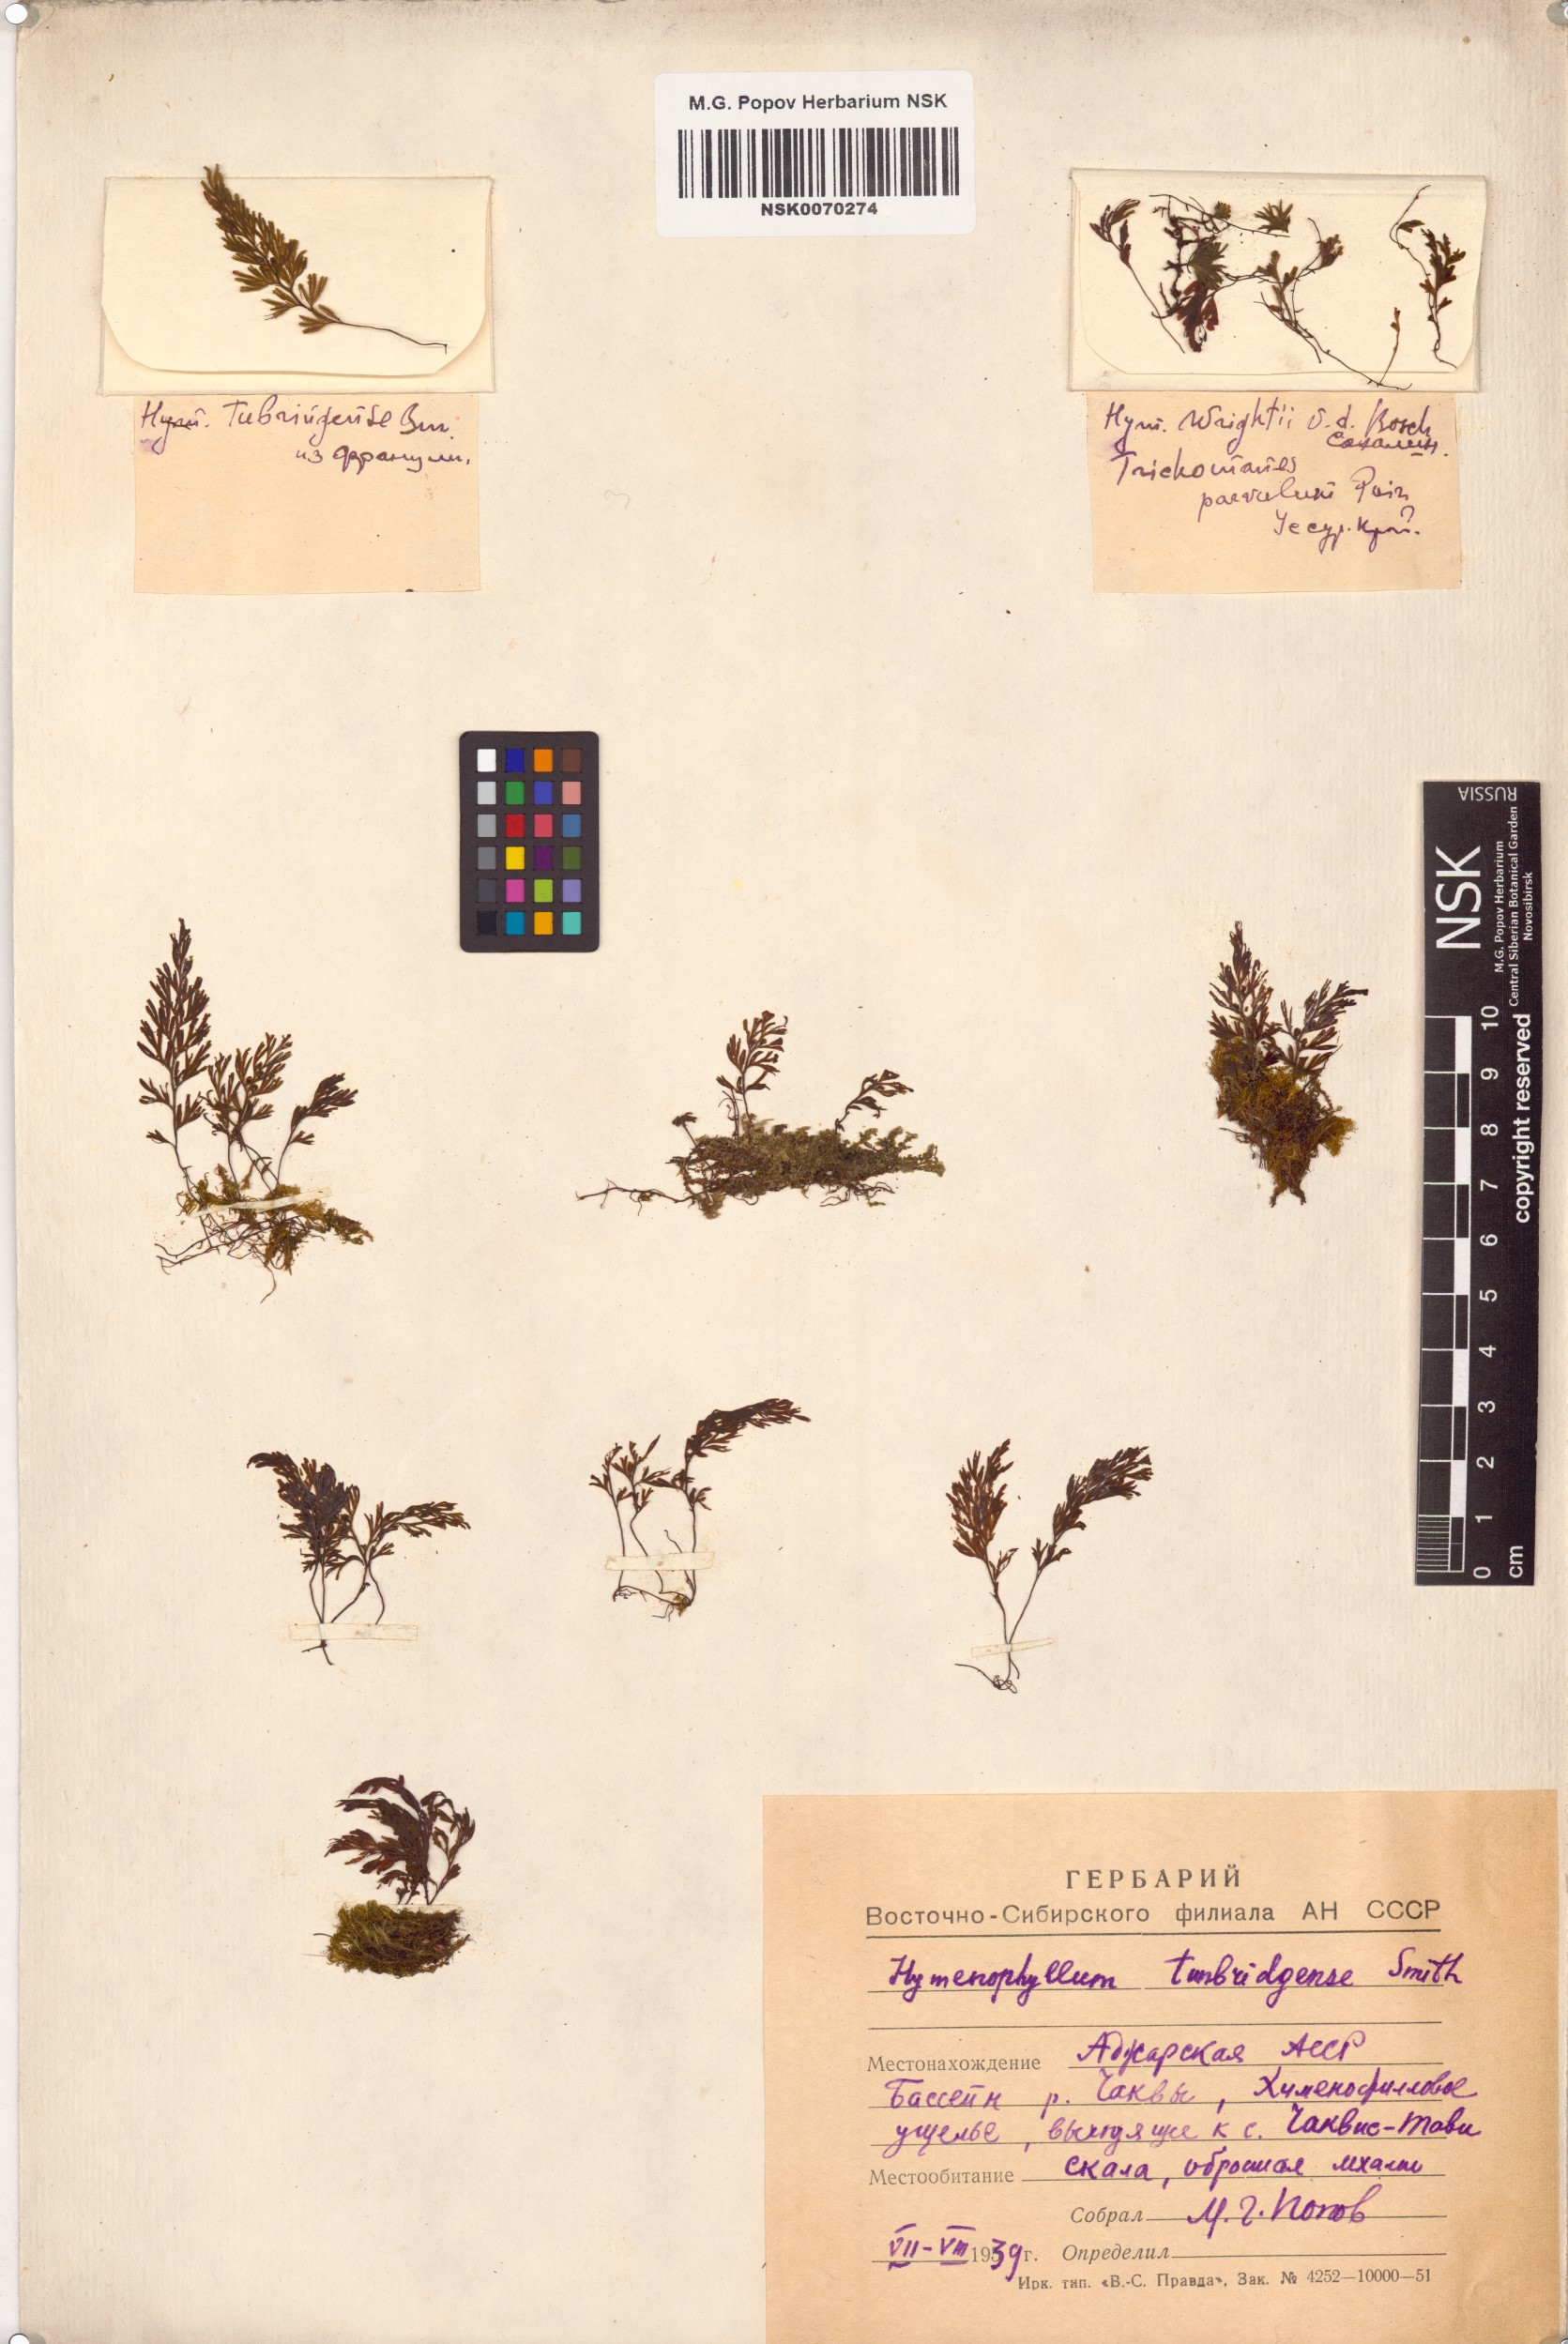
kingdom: Plantae
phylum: Tracheophyta
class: Polypodiopsida
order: Hymenophyllales
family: Hymenophyllaceae
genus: Hymenophyllum
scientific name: Hymenophyllum tunbrigense
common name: Tunbridge filmy fern
